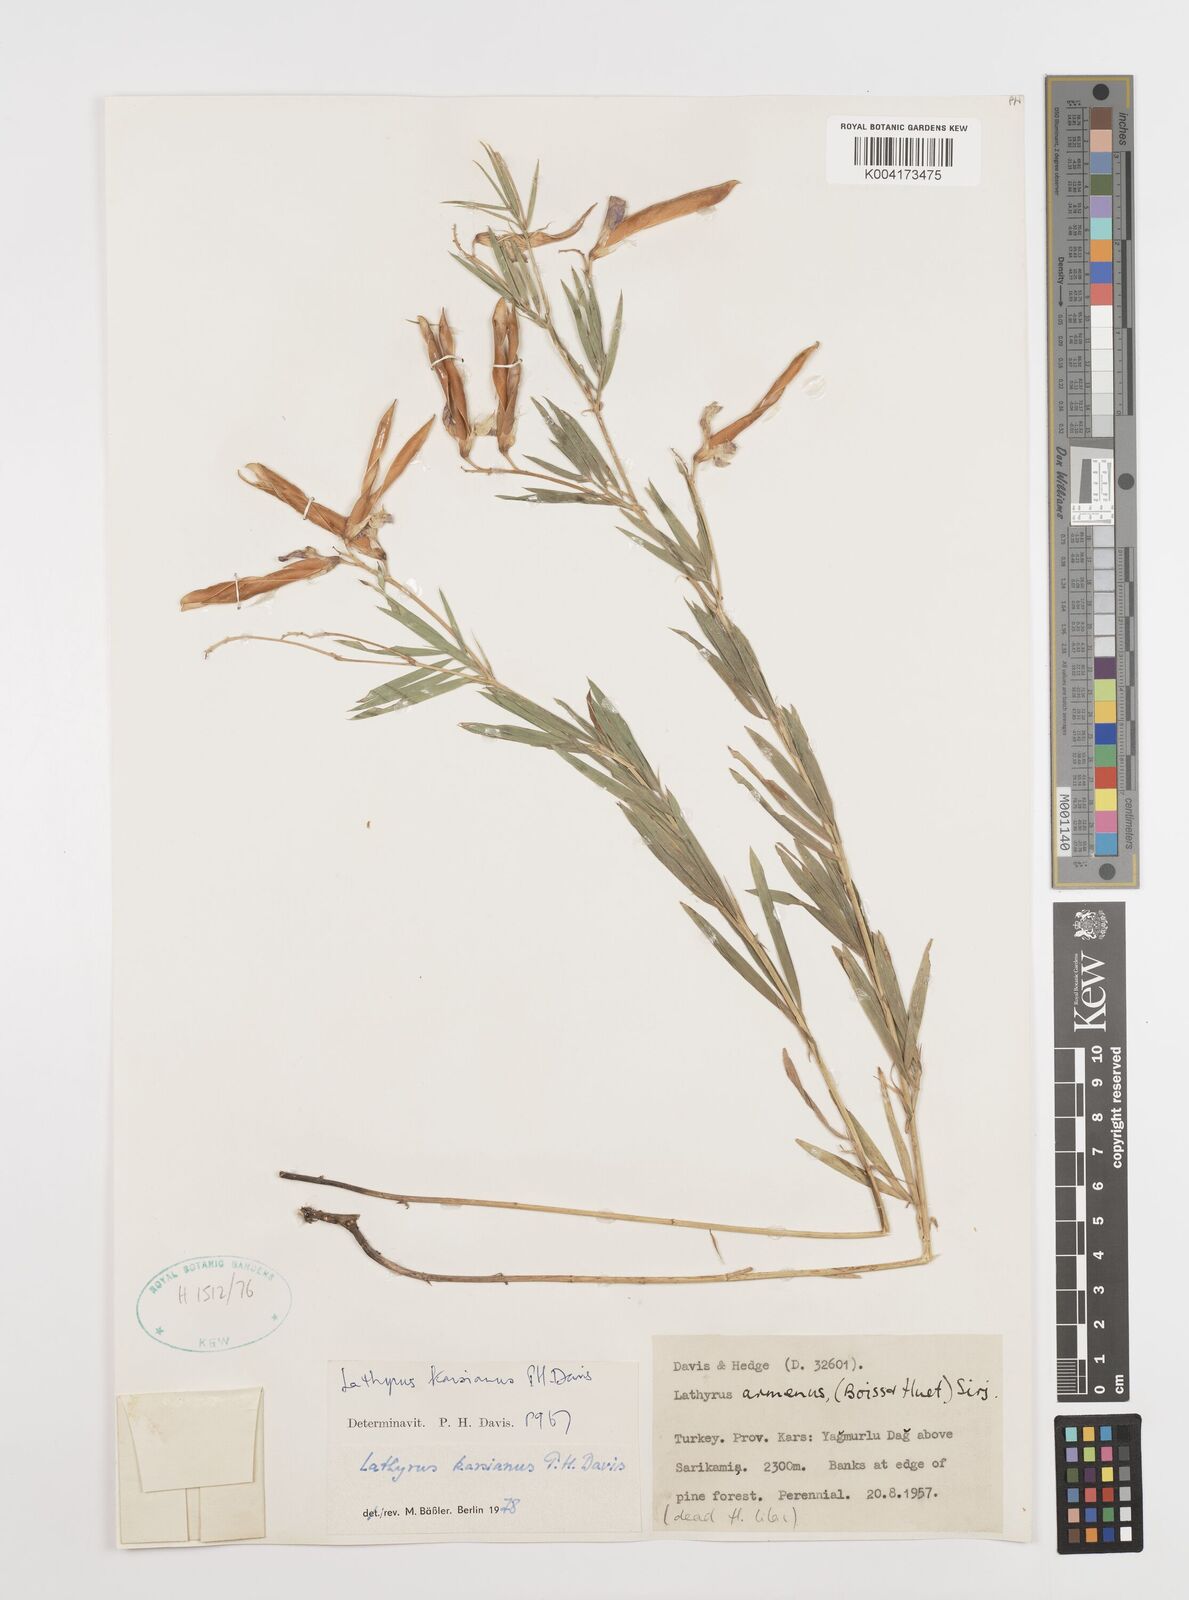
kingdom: Plantae
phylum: Tracheophyta
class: Magnoliopsida
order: Fabales
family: Fabaceae
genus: Lathyrus
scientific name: Lathyrus karsianus
